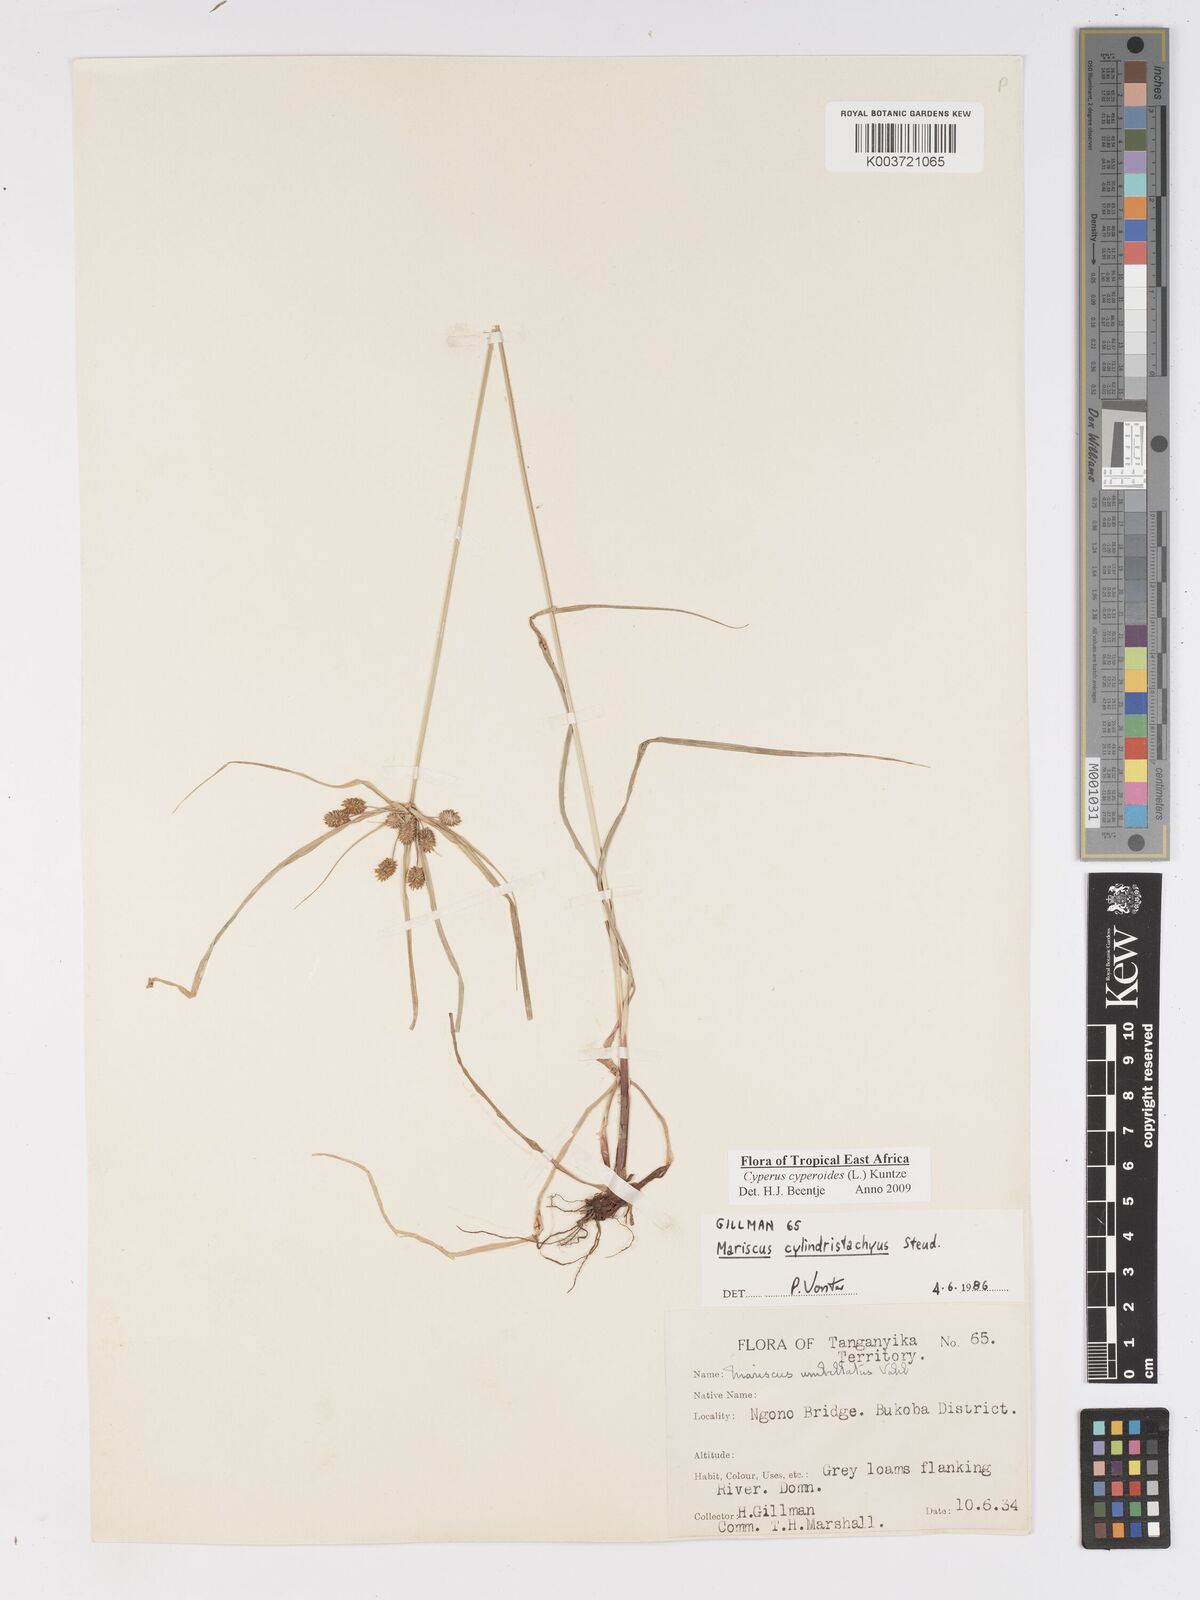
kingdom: Plantae
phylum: Tracheophyta
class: Liliopsida
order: Poales
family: Cyperaceae
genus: Cyperus
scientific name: Cyperus cyperoides
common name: Pacific island flat sedge
